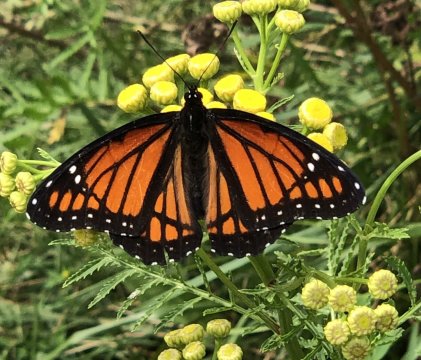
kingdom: Animalia
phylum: Arthropoda
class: Insecta
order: Lepidoptera
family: Nymphalidae
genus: Limenitis
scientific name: Limenitis archippus
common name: Viceroy
